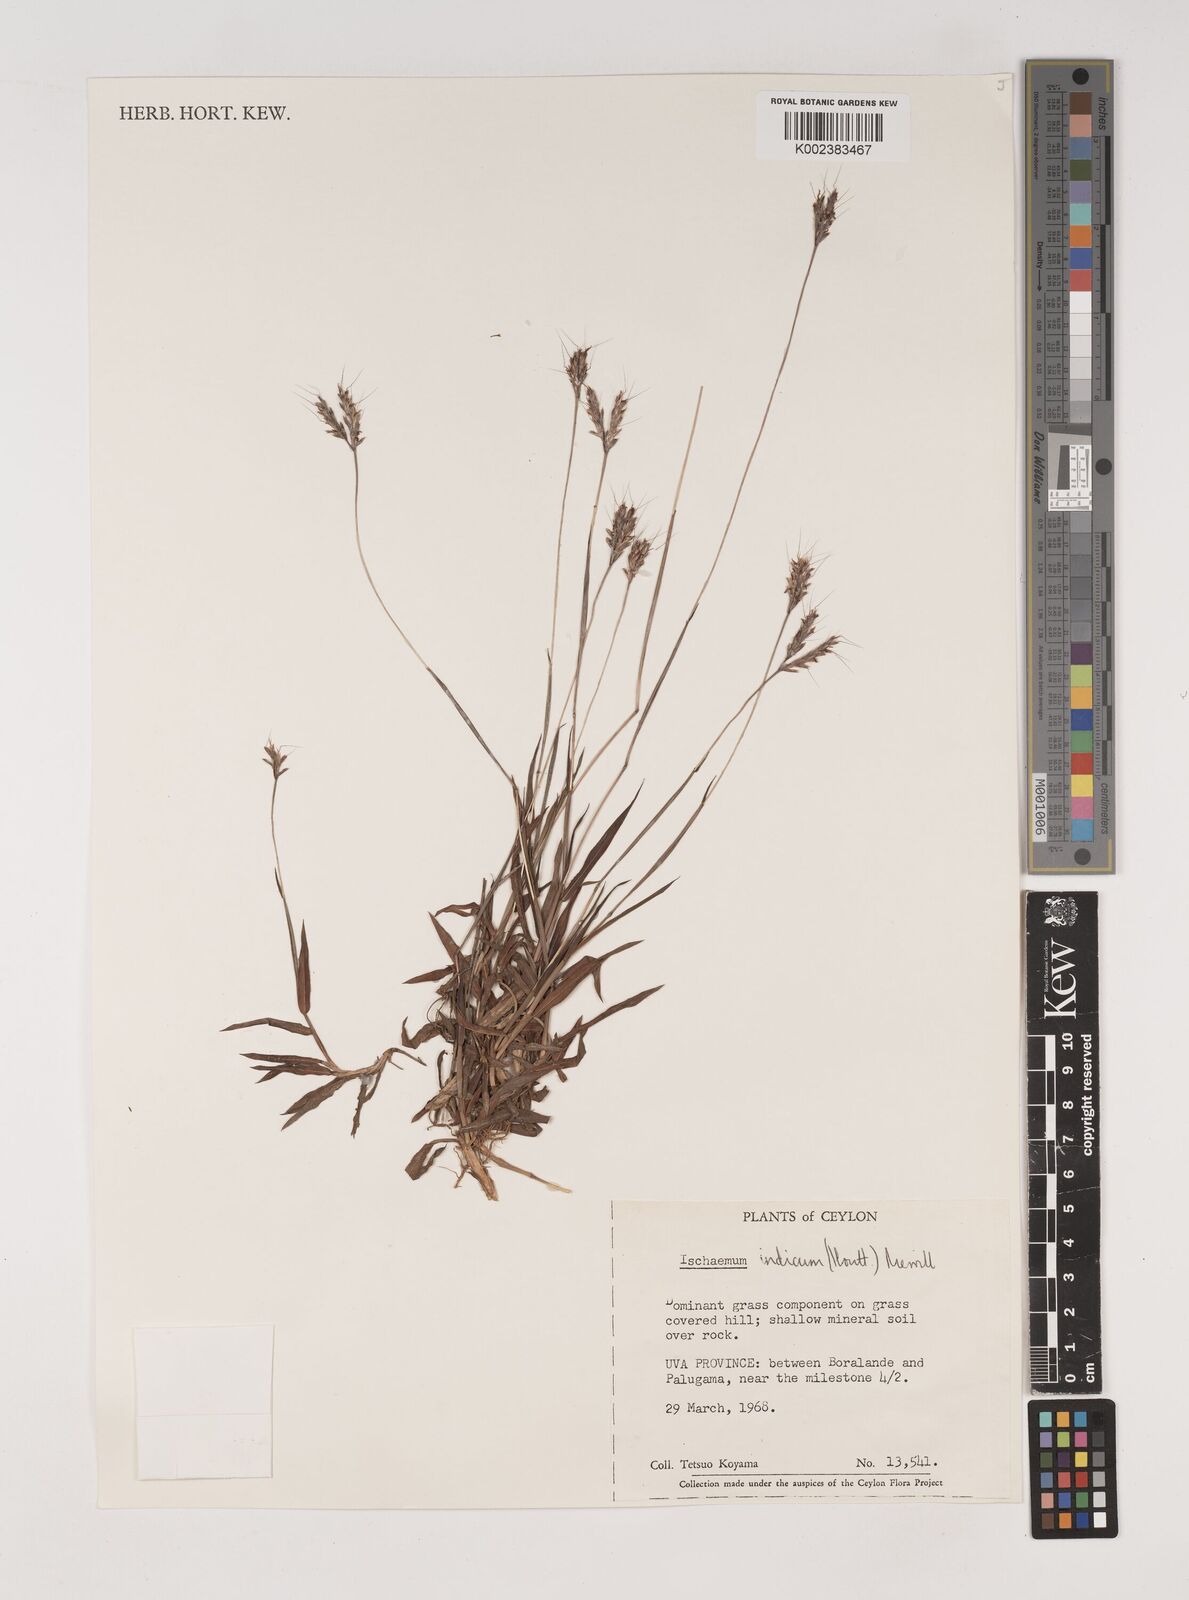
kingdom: Plantae
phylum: Tracheophyta
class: Liliopsida
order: Poales
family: Poaceae
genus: Polytrias
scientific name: Polytrias indica
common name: Indian murainagrass
